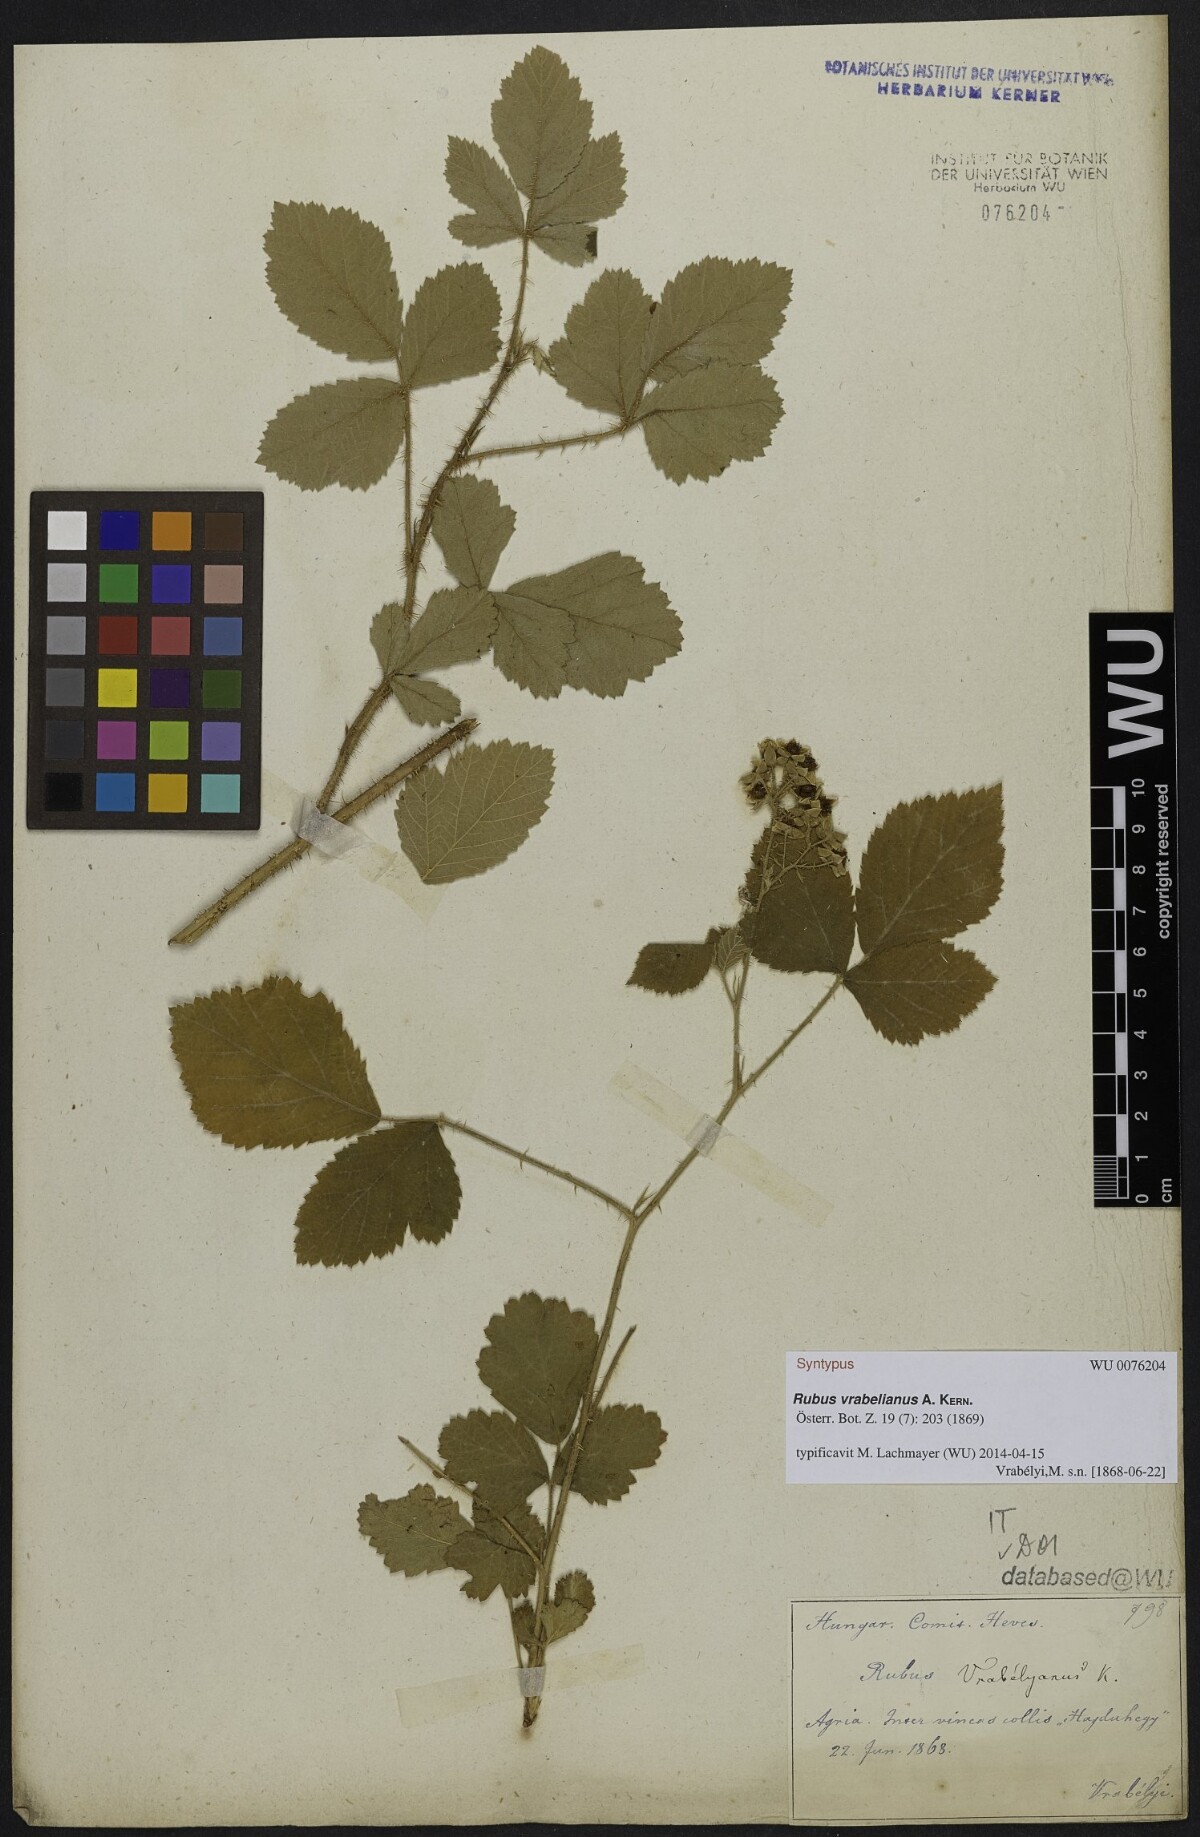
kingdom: Plantae
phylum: Tracheophyta
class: Magnoliopsida
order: Rosales
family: Rosaceae
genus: Rubus
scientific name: Rubus vrabelianus
